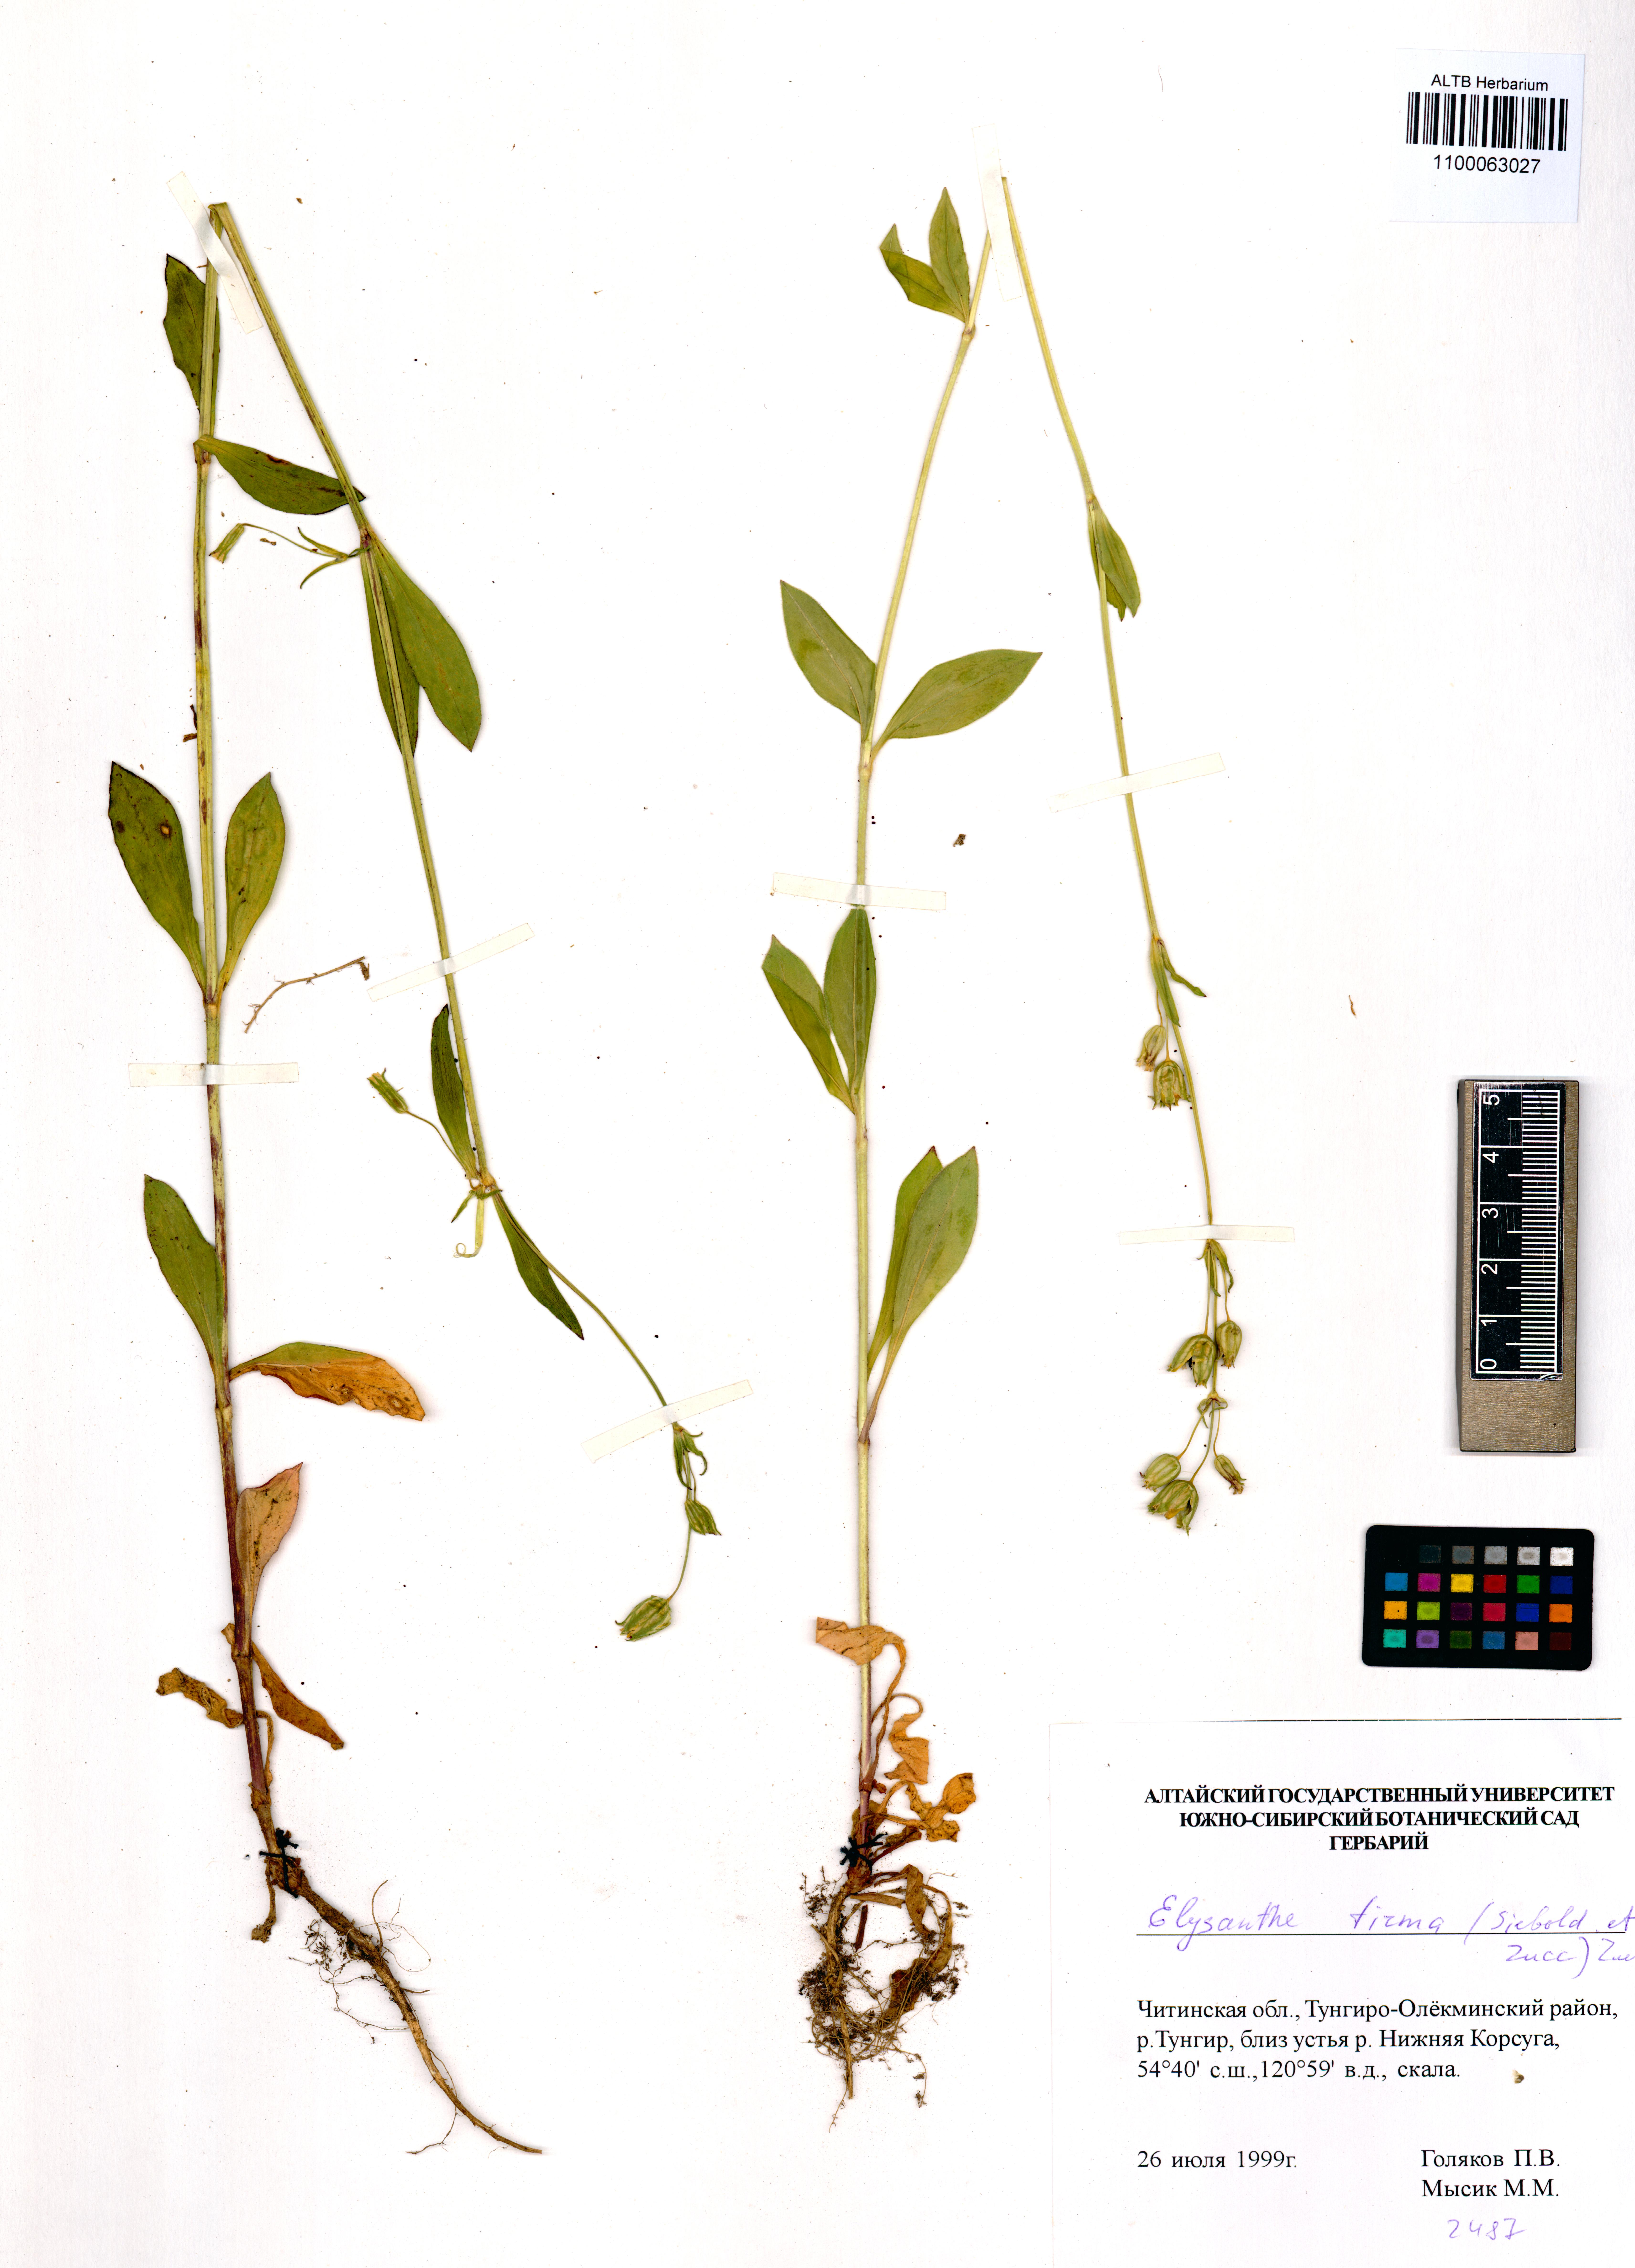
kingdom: Plantae
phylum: Tracheophyta
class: Magnoliopsida
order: Caryophyllales
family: Caryophyllaceae
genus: Silene
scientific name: Silene firma
